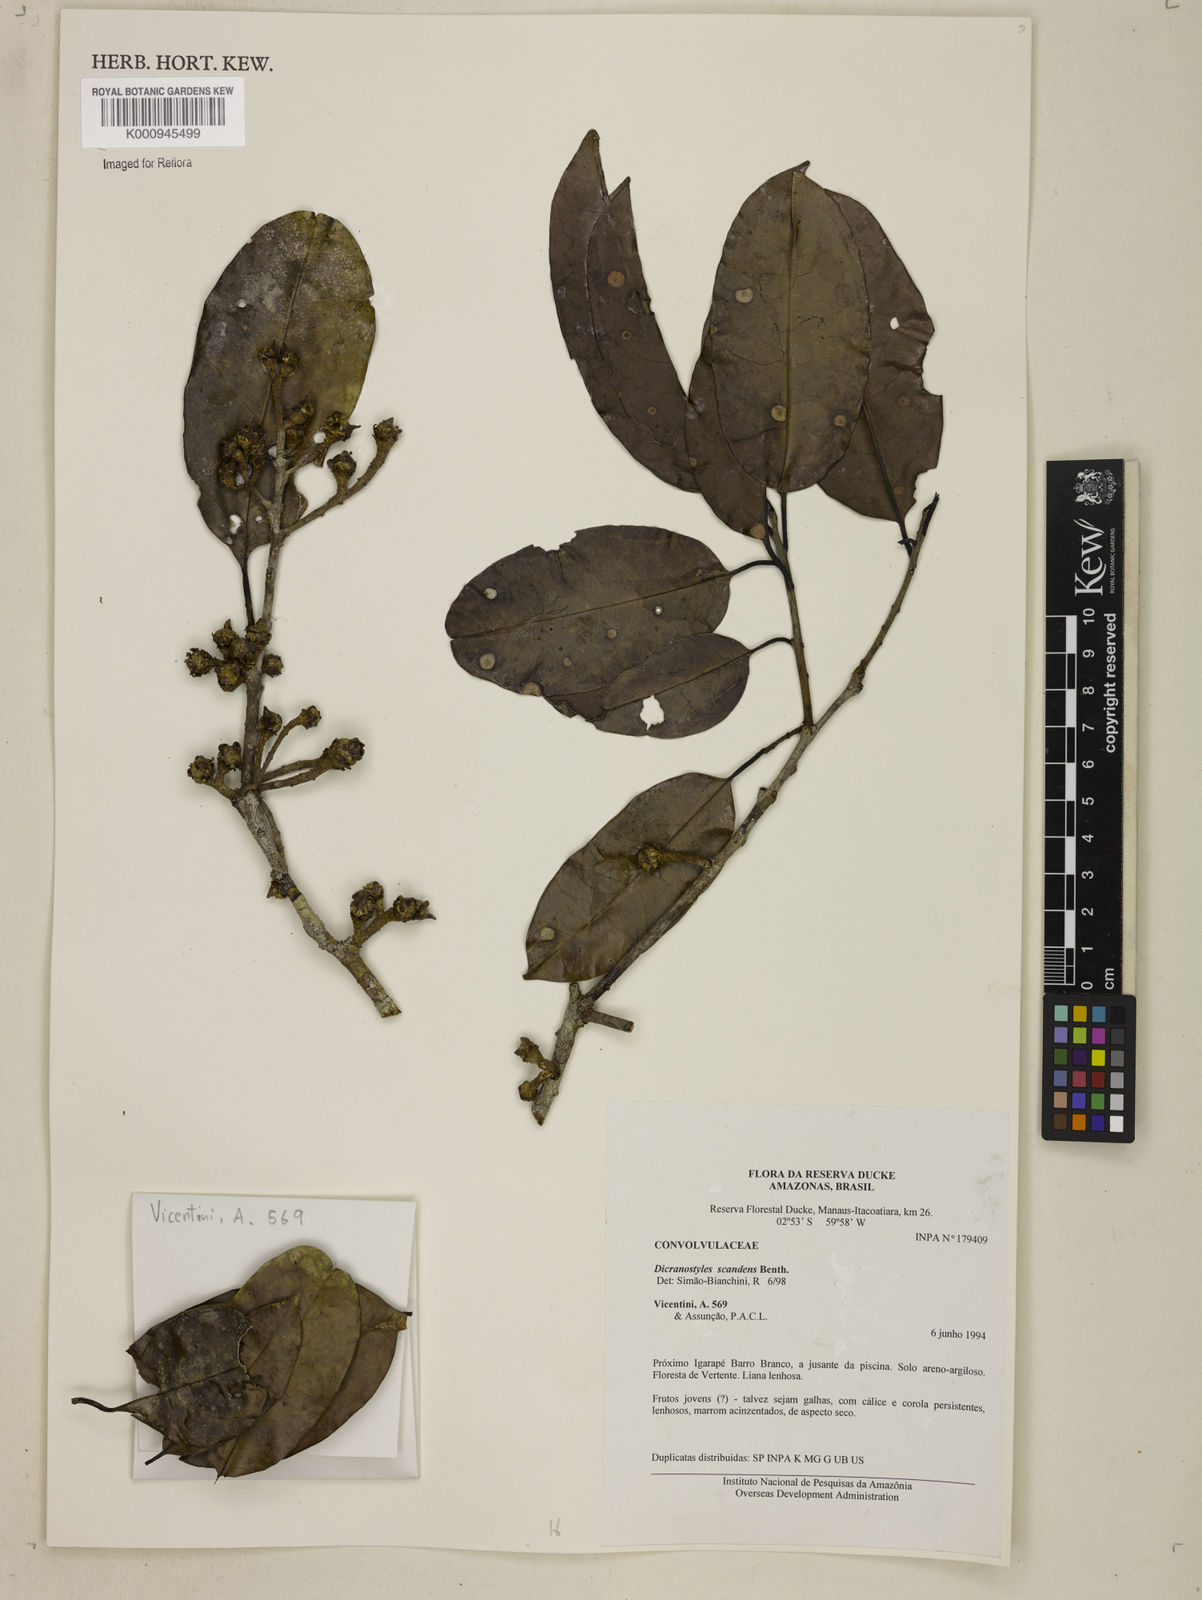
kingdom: Plantae
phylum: Tracheophyta
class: Magnoliopsida
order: Solanales
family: Convolvulaceae
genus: Dicranostyles
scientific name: Dicranostyles scandens
